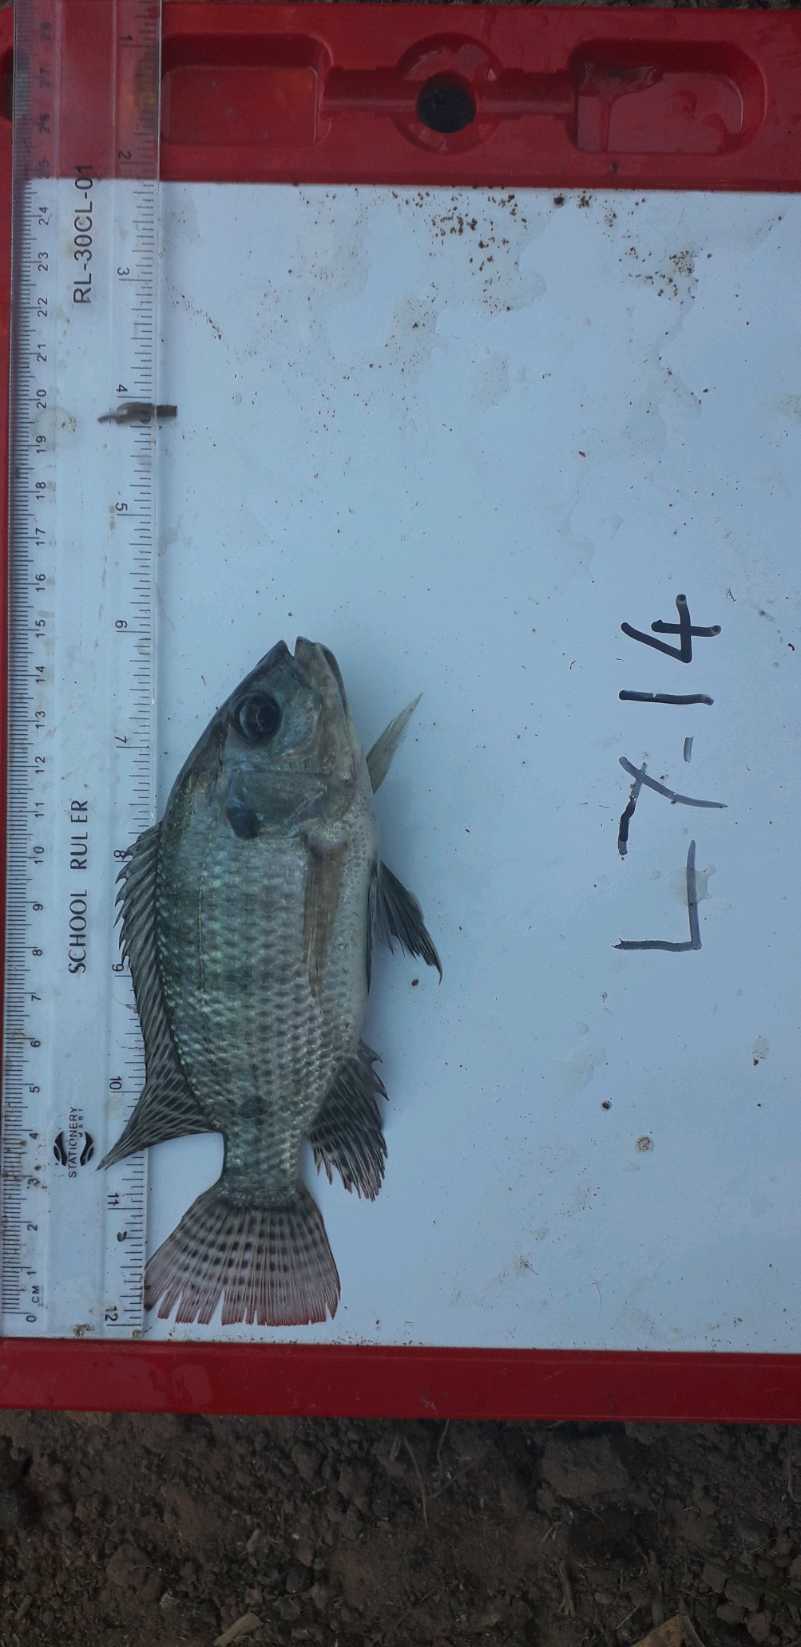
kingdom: Animalia
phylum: Chordata
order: Perciformes
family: Cichlidae
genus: Oreochromis
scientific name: Oreochromis niloticus
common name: Nile tilapia
